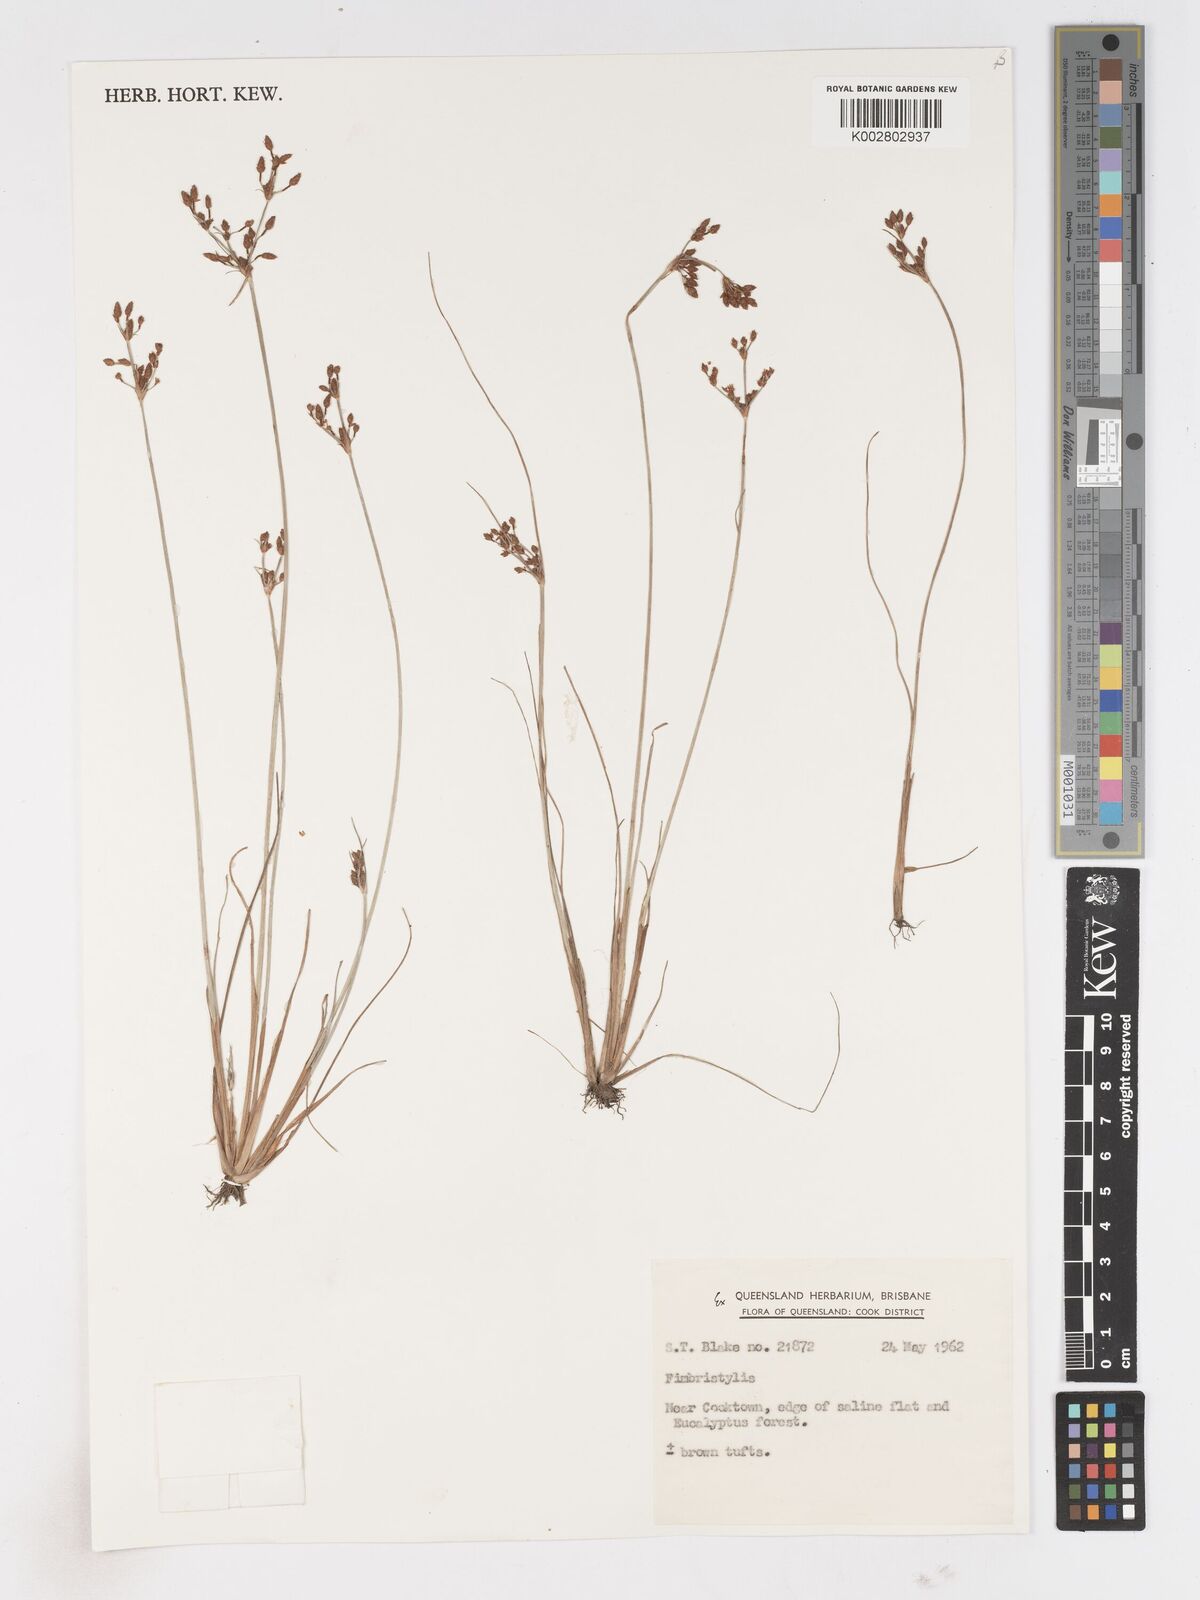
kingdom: Plantae
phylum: Tracheophyta
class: Liliopsida
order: Poales
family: Cyperaceae
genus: Fimbristylis
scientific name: Fimbristylis
